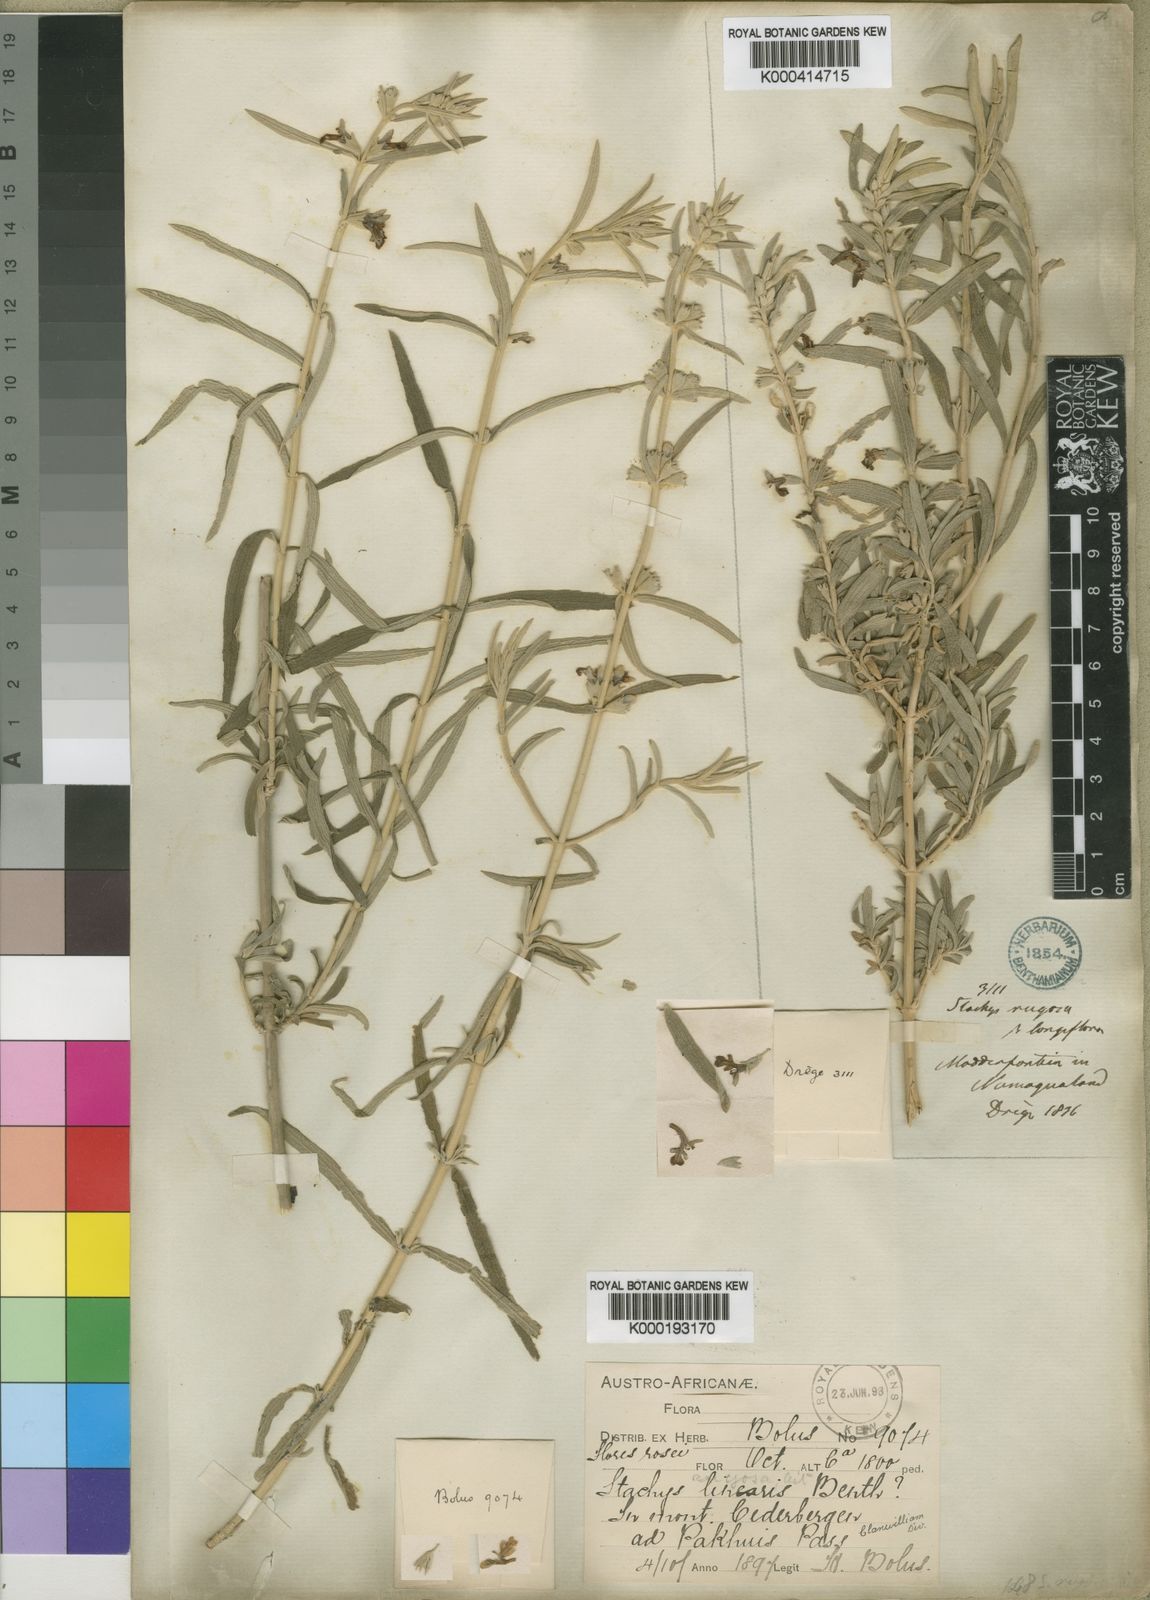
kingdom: Plantae
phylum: Tracheophyta
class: Magnoliopsida
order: Lamiales
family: Lamiaceae
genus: Stachys
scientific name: Stachys rugosa
